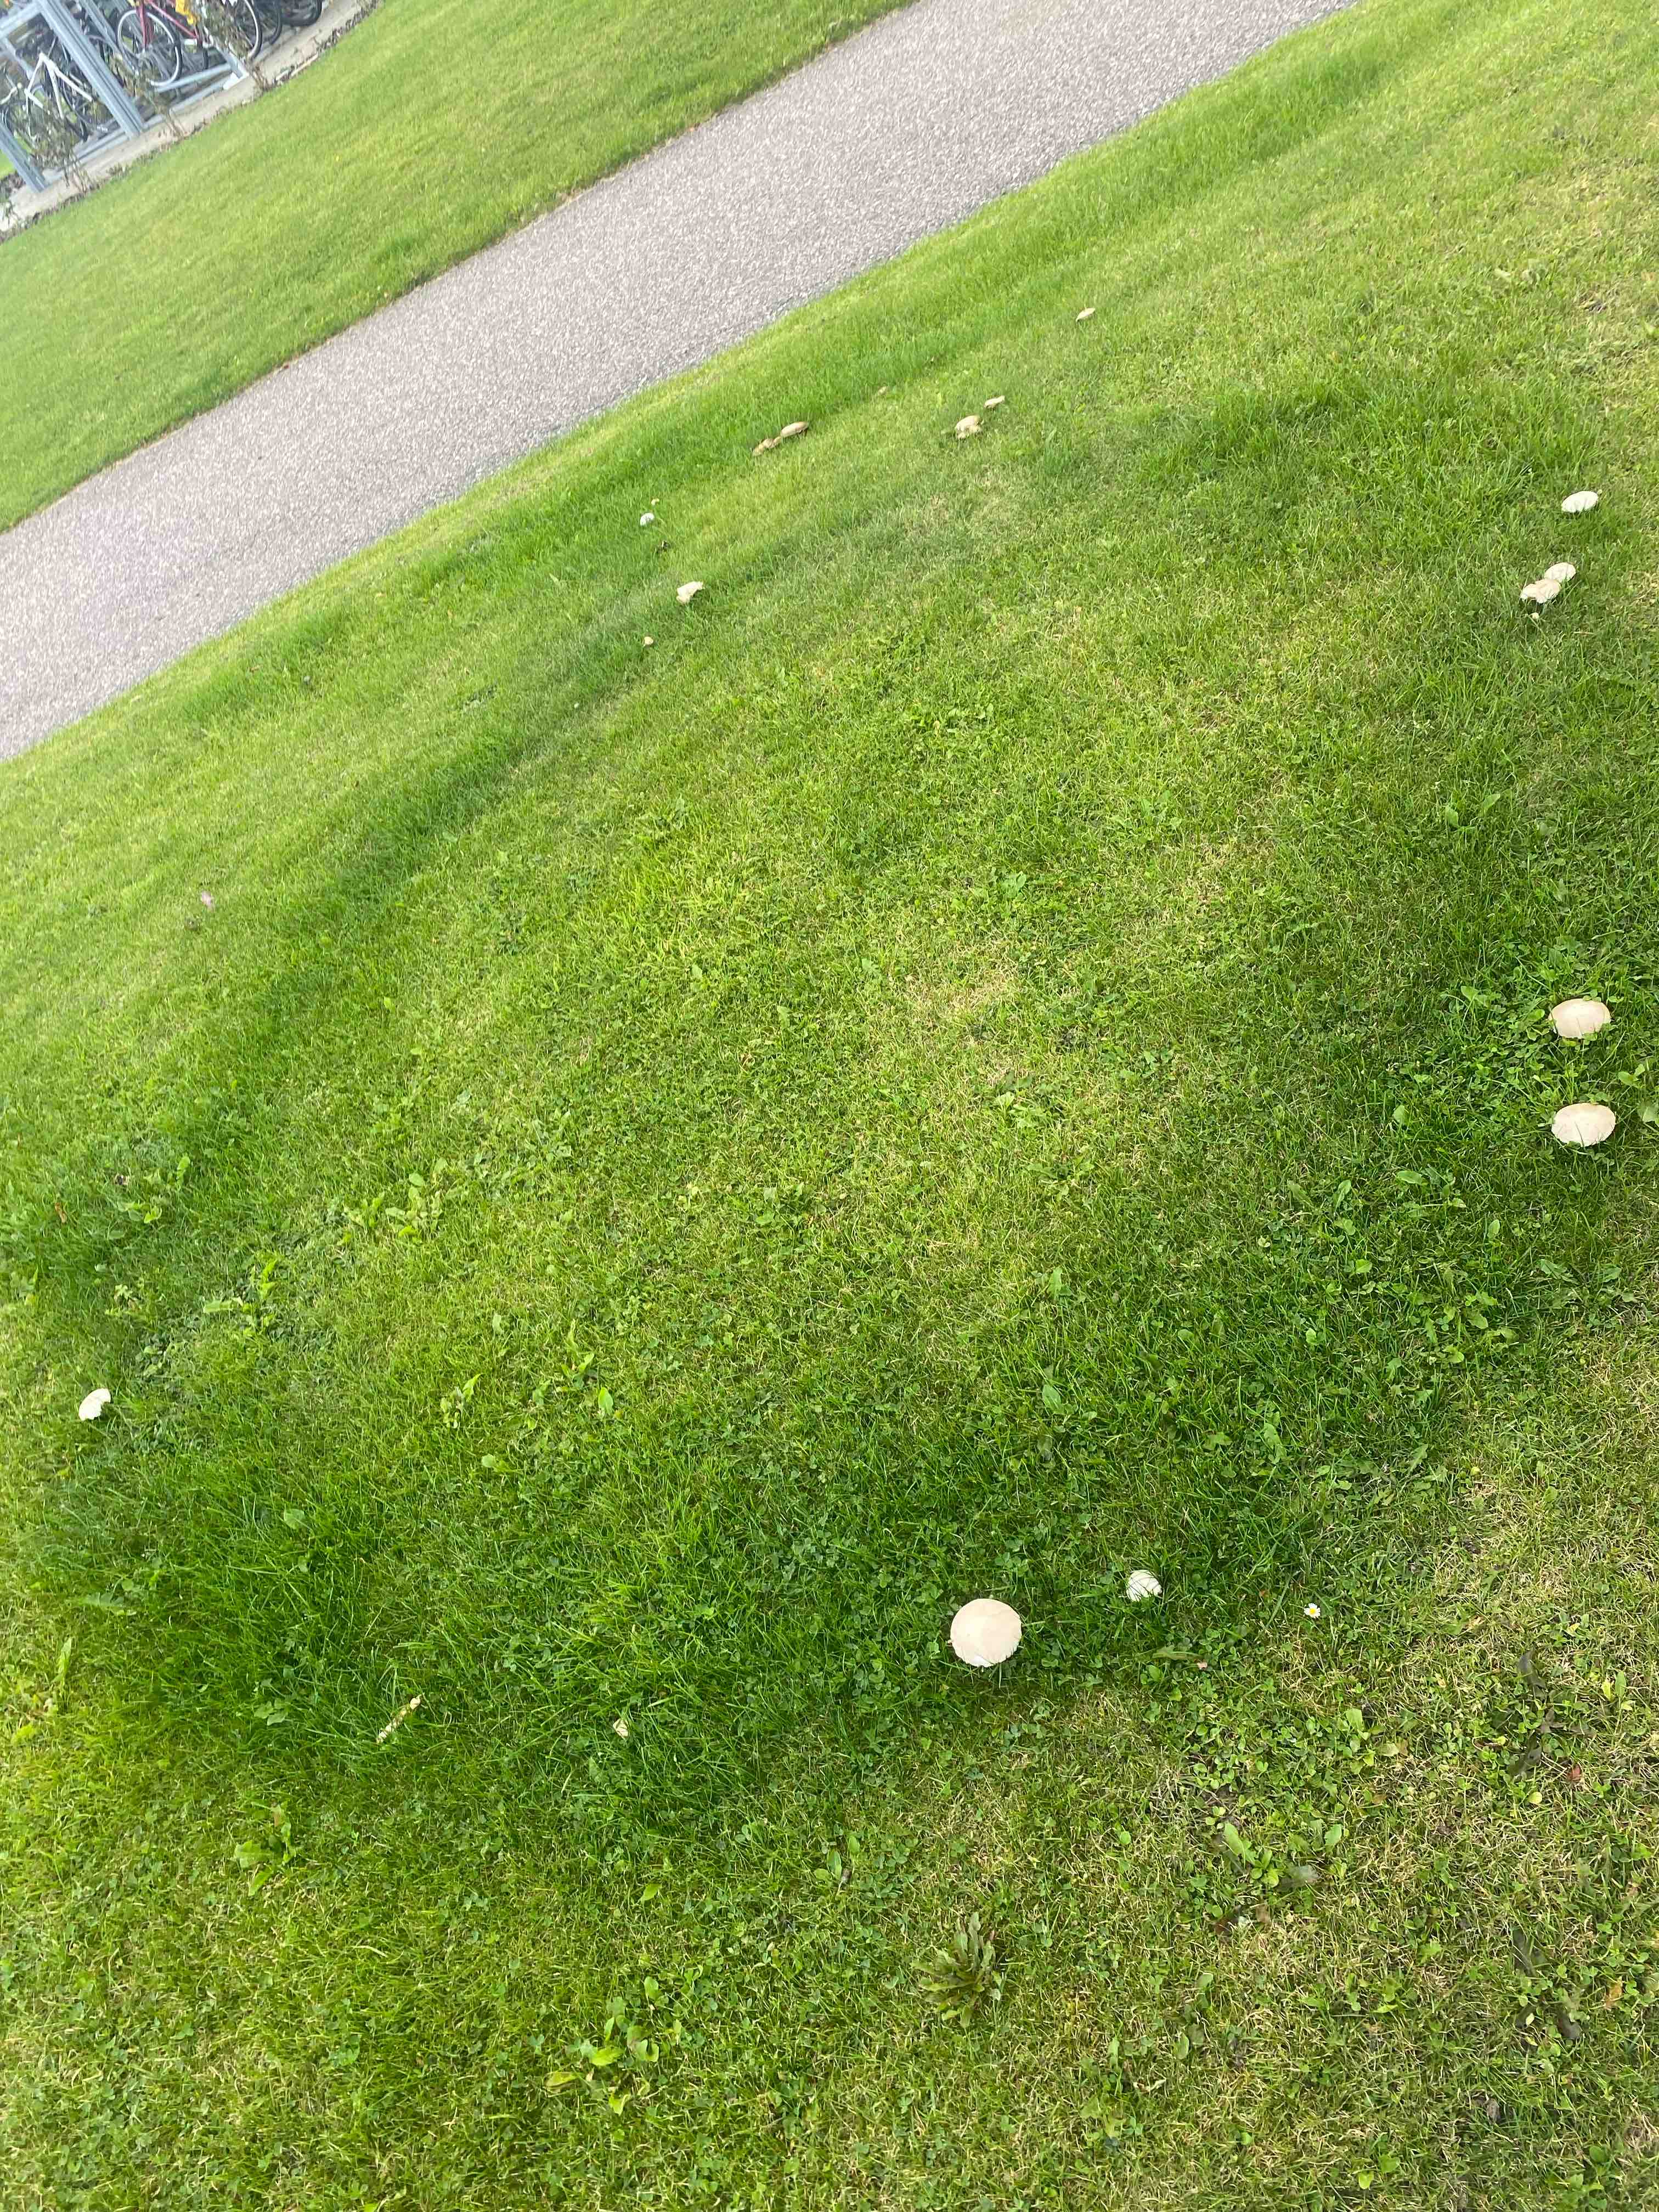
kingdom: Fungi
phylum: Basidiomycota
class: Agaricomycetes
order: Agaricales
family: Agaricaceae
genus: Agaricus
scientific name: Agaricus campestris
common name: mark-champignon
